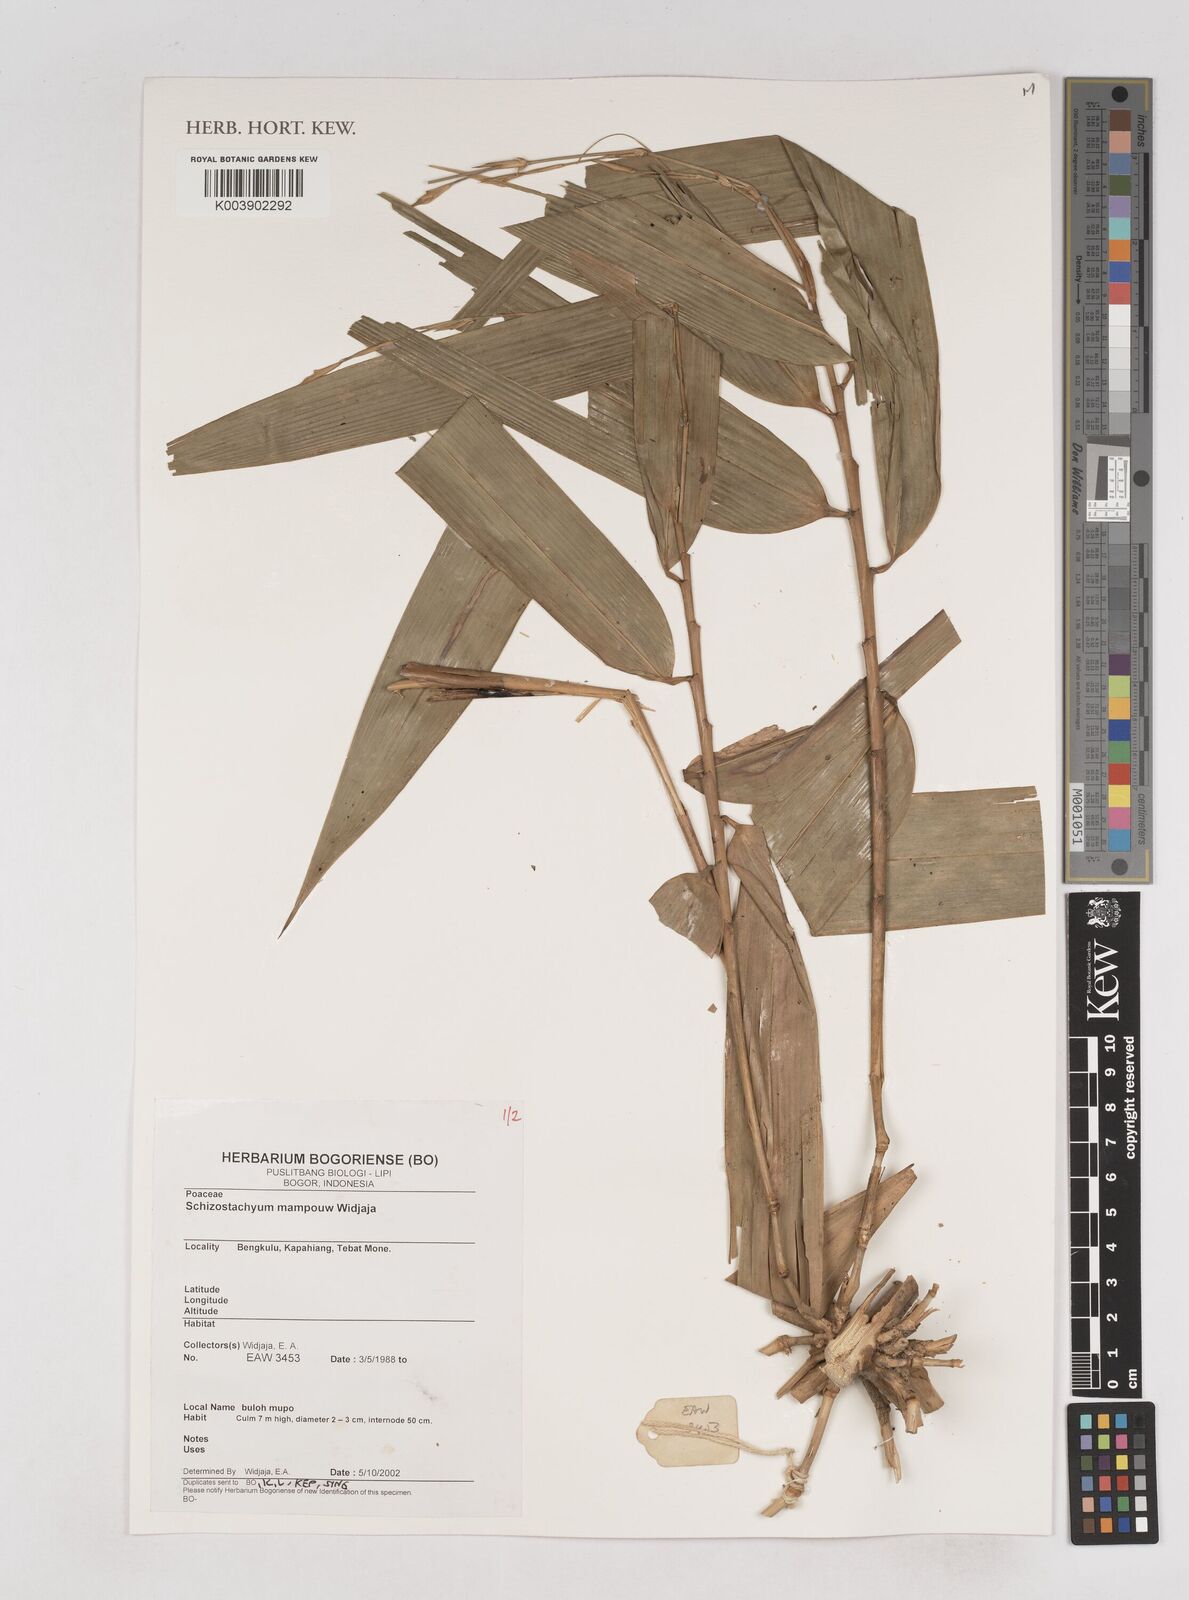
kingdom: Plantae
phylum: Tracheophyta
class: Liliopsida
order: Poales
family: Poaceae
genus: Schizostachyum
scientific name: Schizostachyum mampouw
